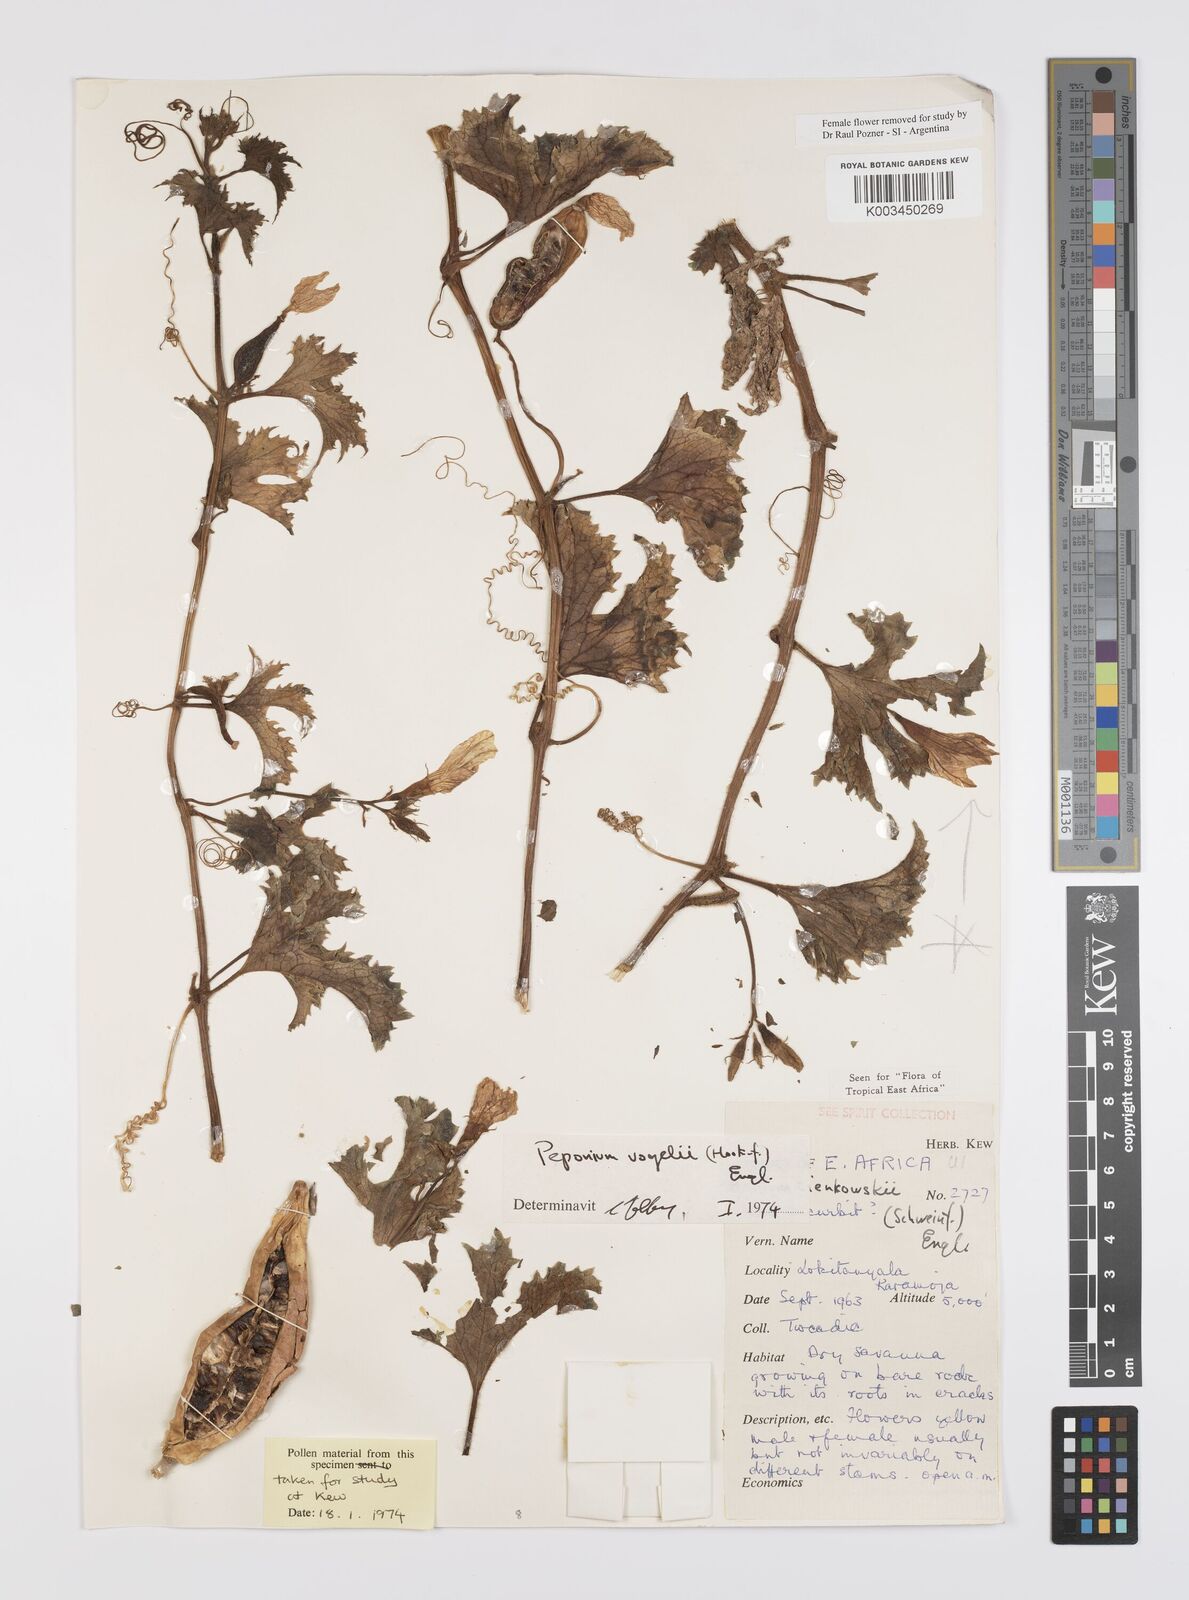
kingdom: Plantae
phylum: Tracheophyta
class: Magnoliopsida
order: Cucurbitales
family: Cucurbitaceae
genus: Peponium
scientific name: Peponium vogelii
